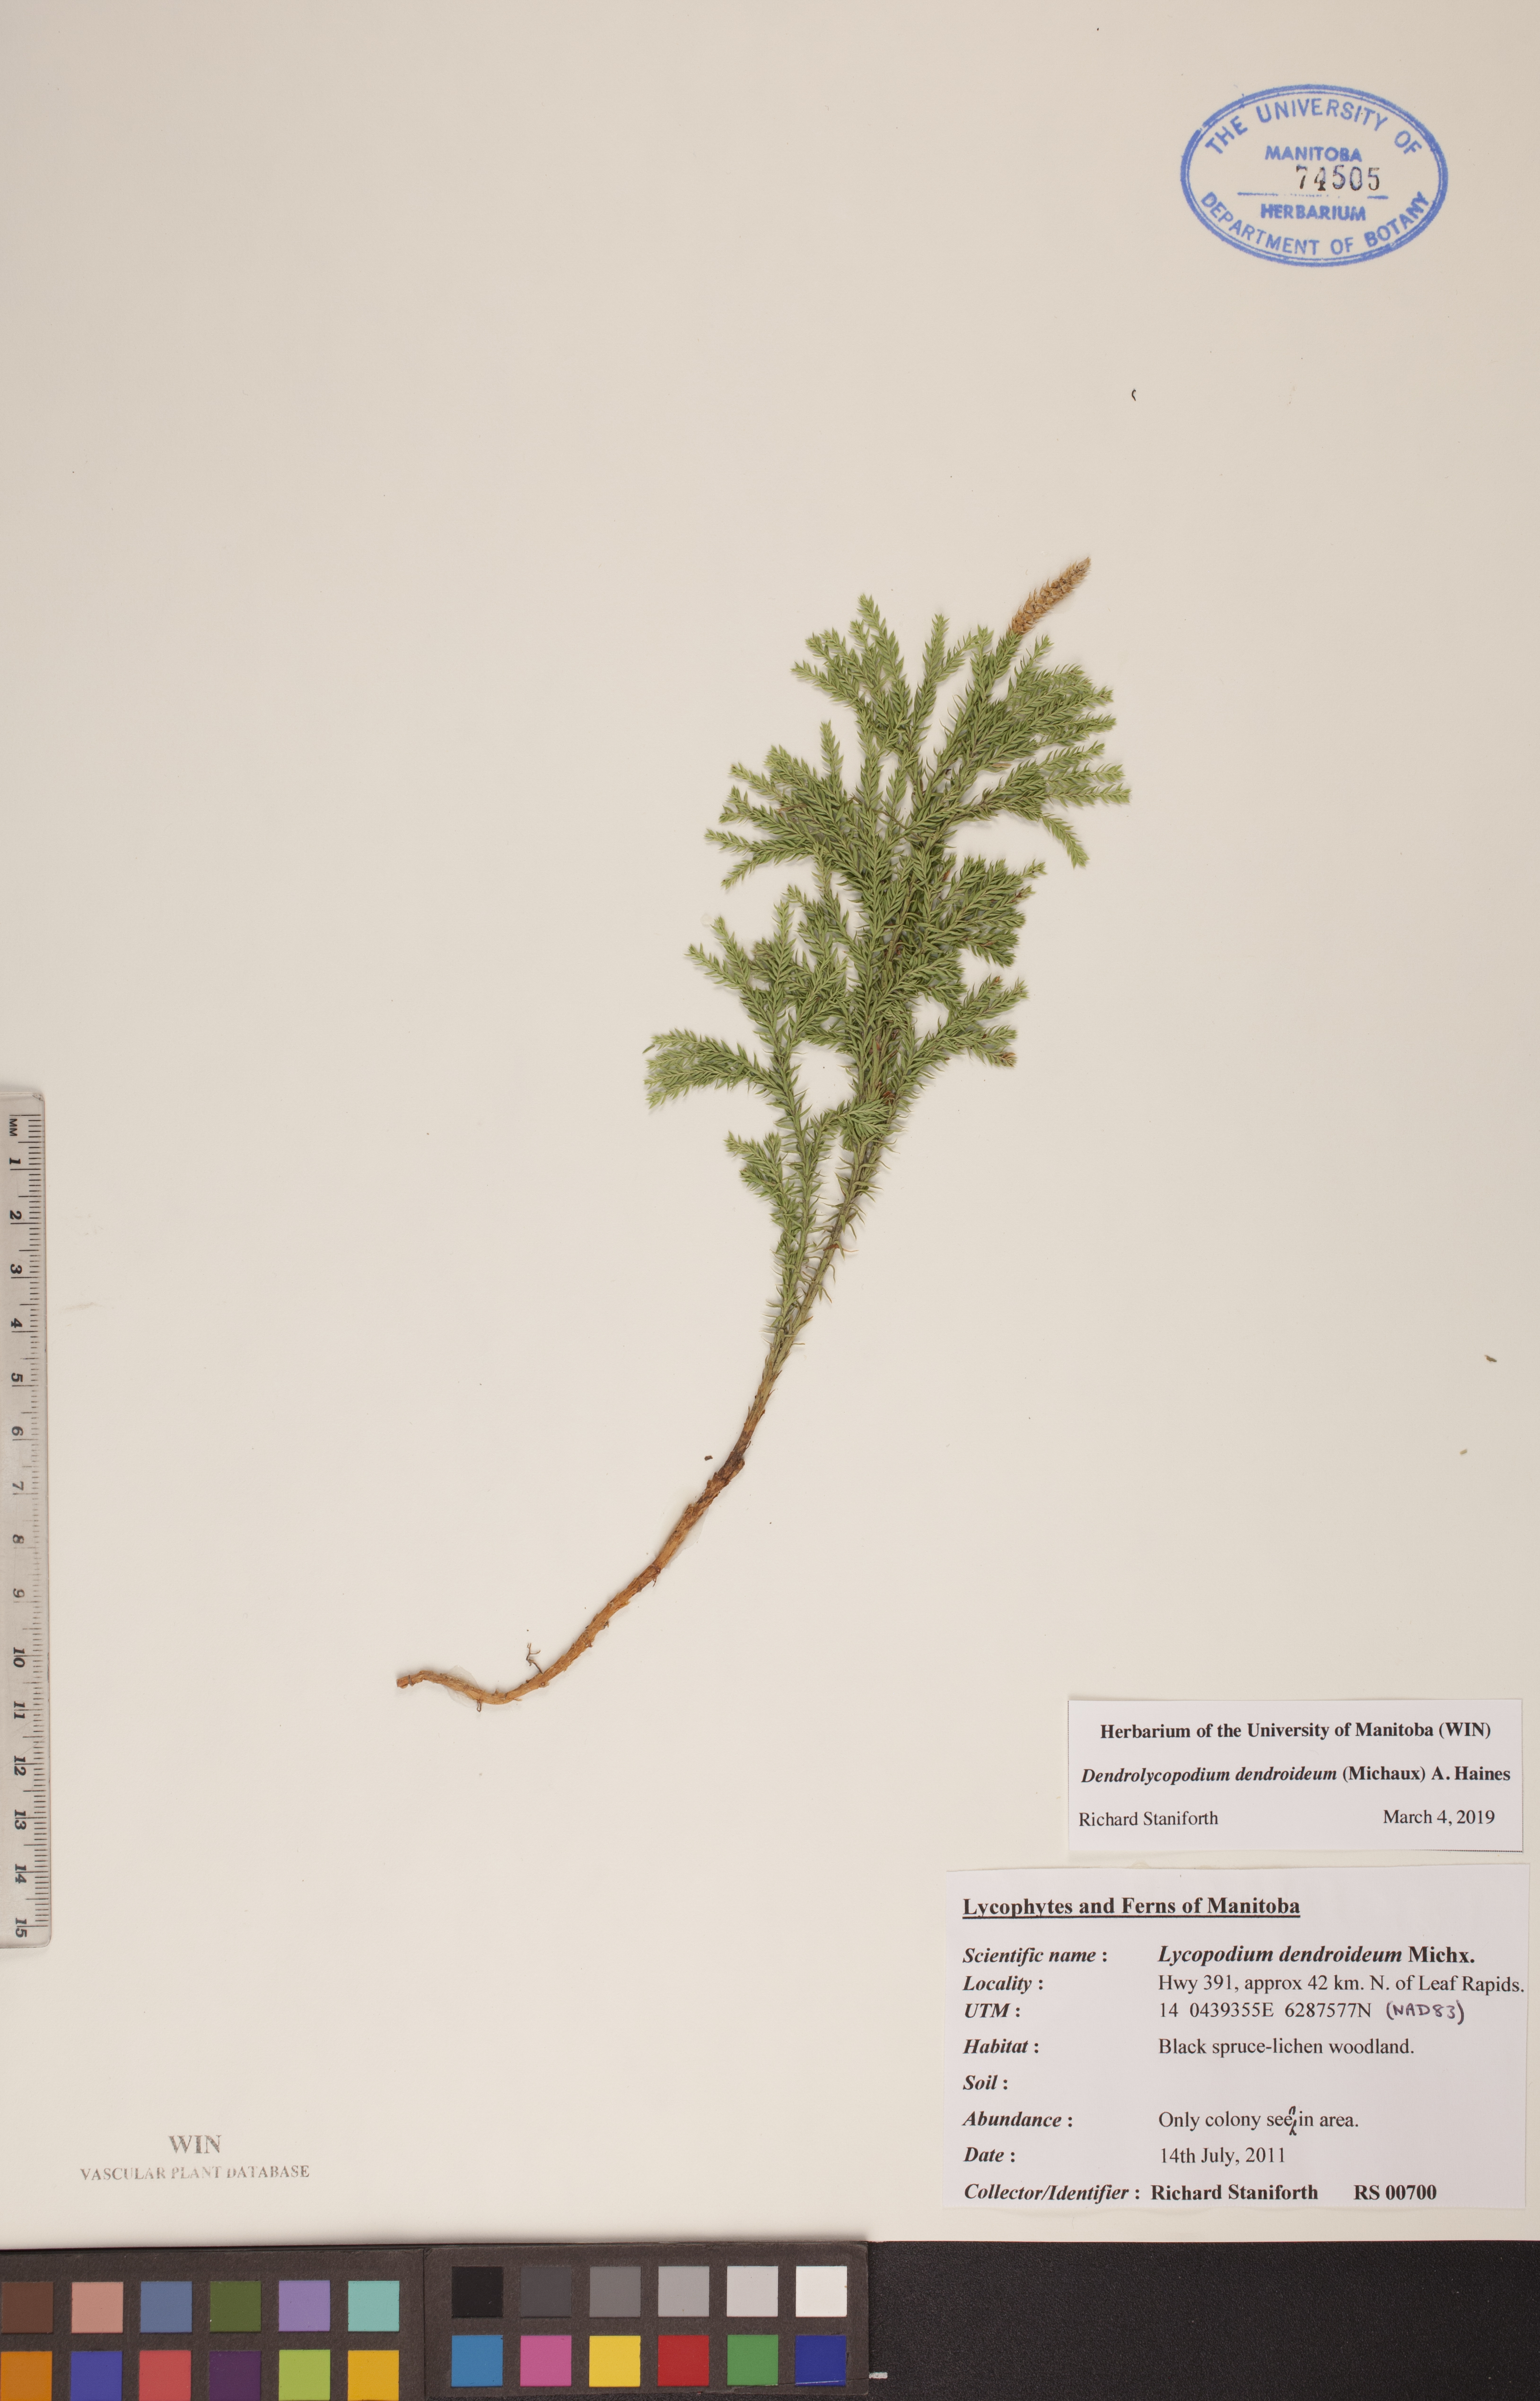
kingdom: Plantae
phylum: Tracheophyta
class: Lycopodiopsida
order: Lycopodiales
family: Lycopodiaceae
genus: Dendrolycopodium
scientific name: Dendrolycopodium dendroideum
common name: Northern tree-clubmoss
